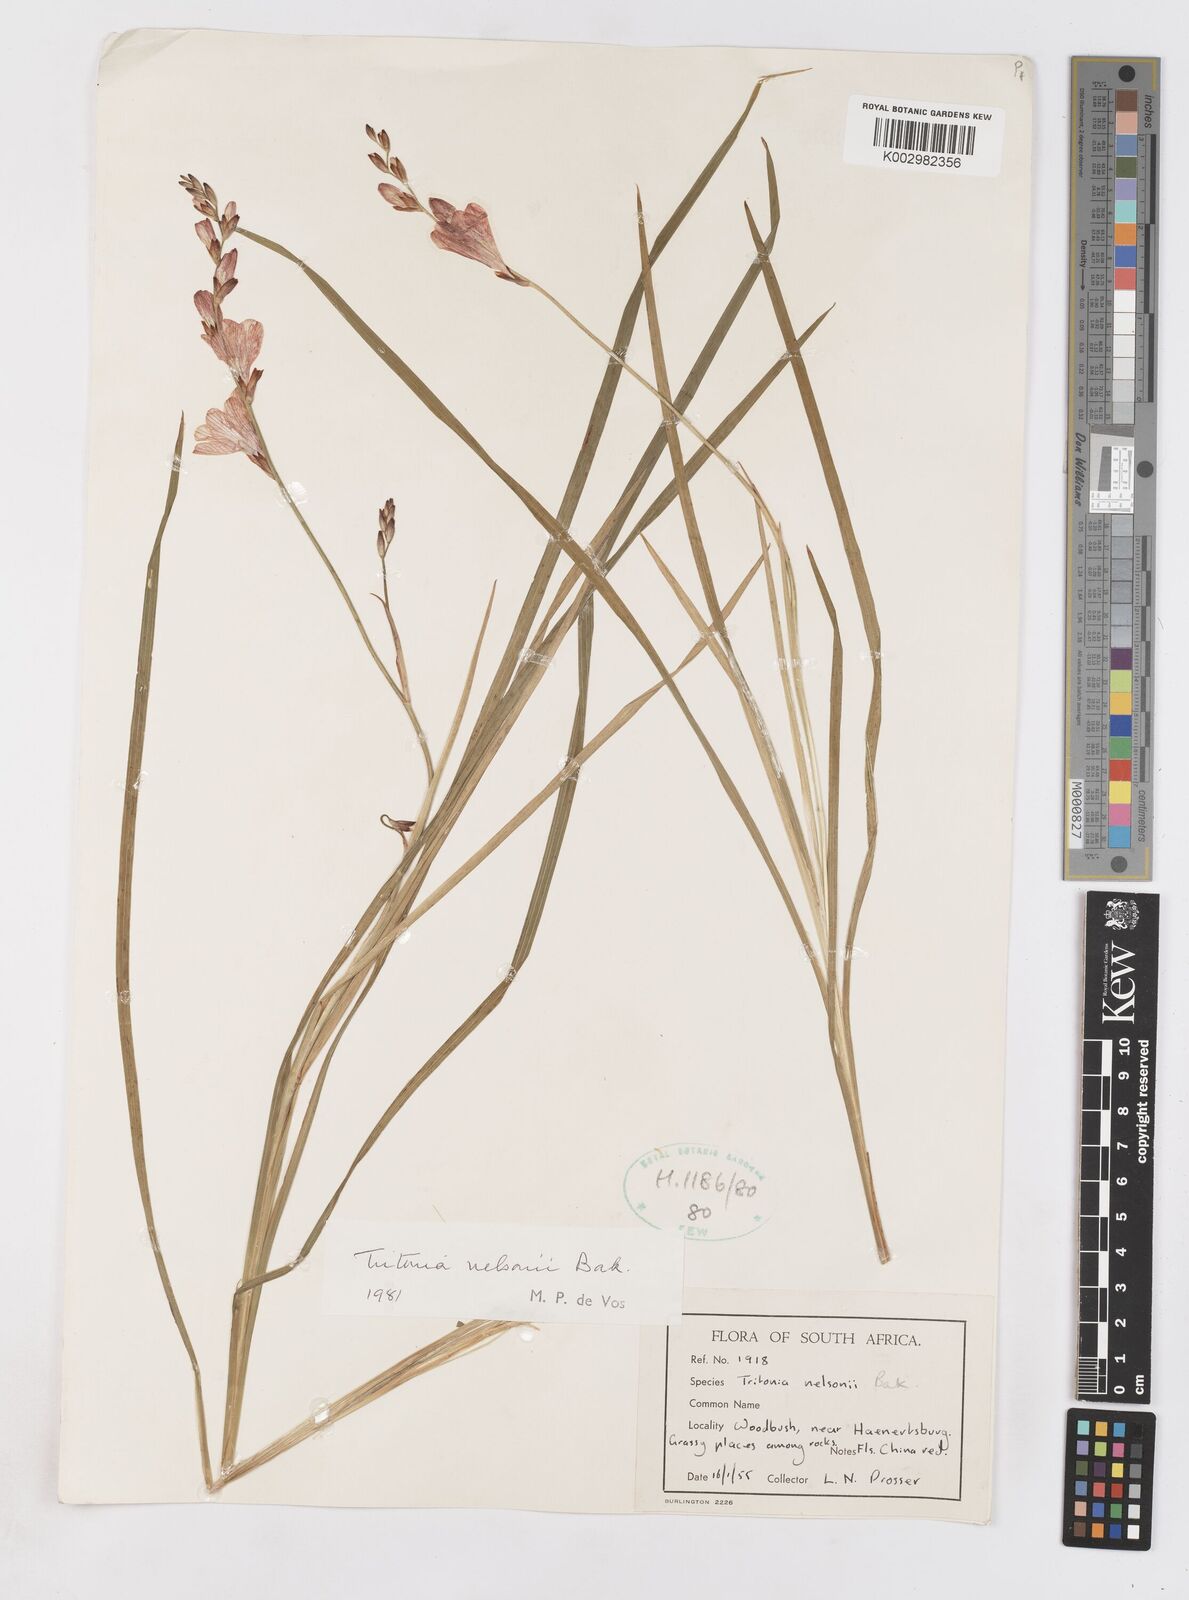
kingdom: Plantae
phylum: Tracheophyta
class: Liliopsida
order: Asparagales
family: Iridaceae
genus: Tritonia
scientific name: Tritonia nelsonii
